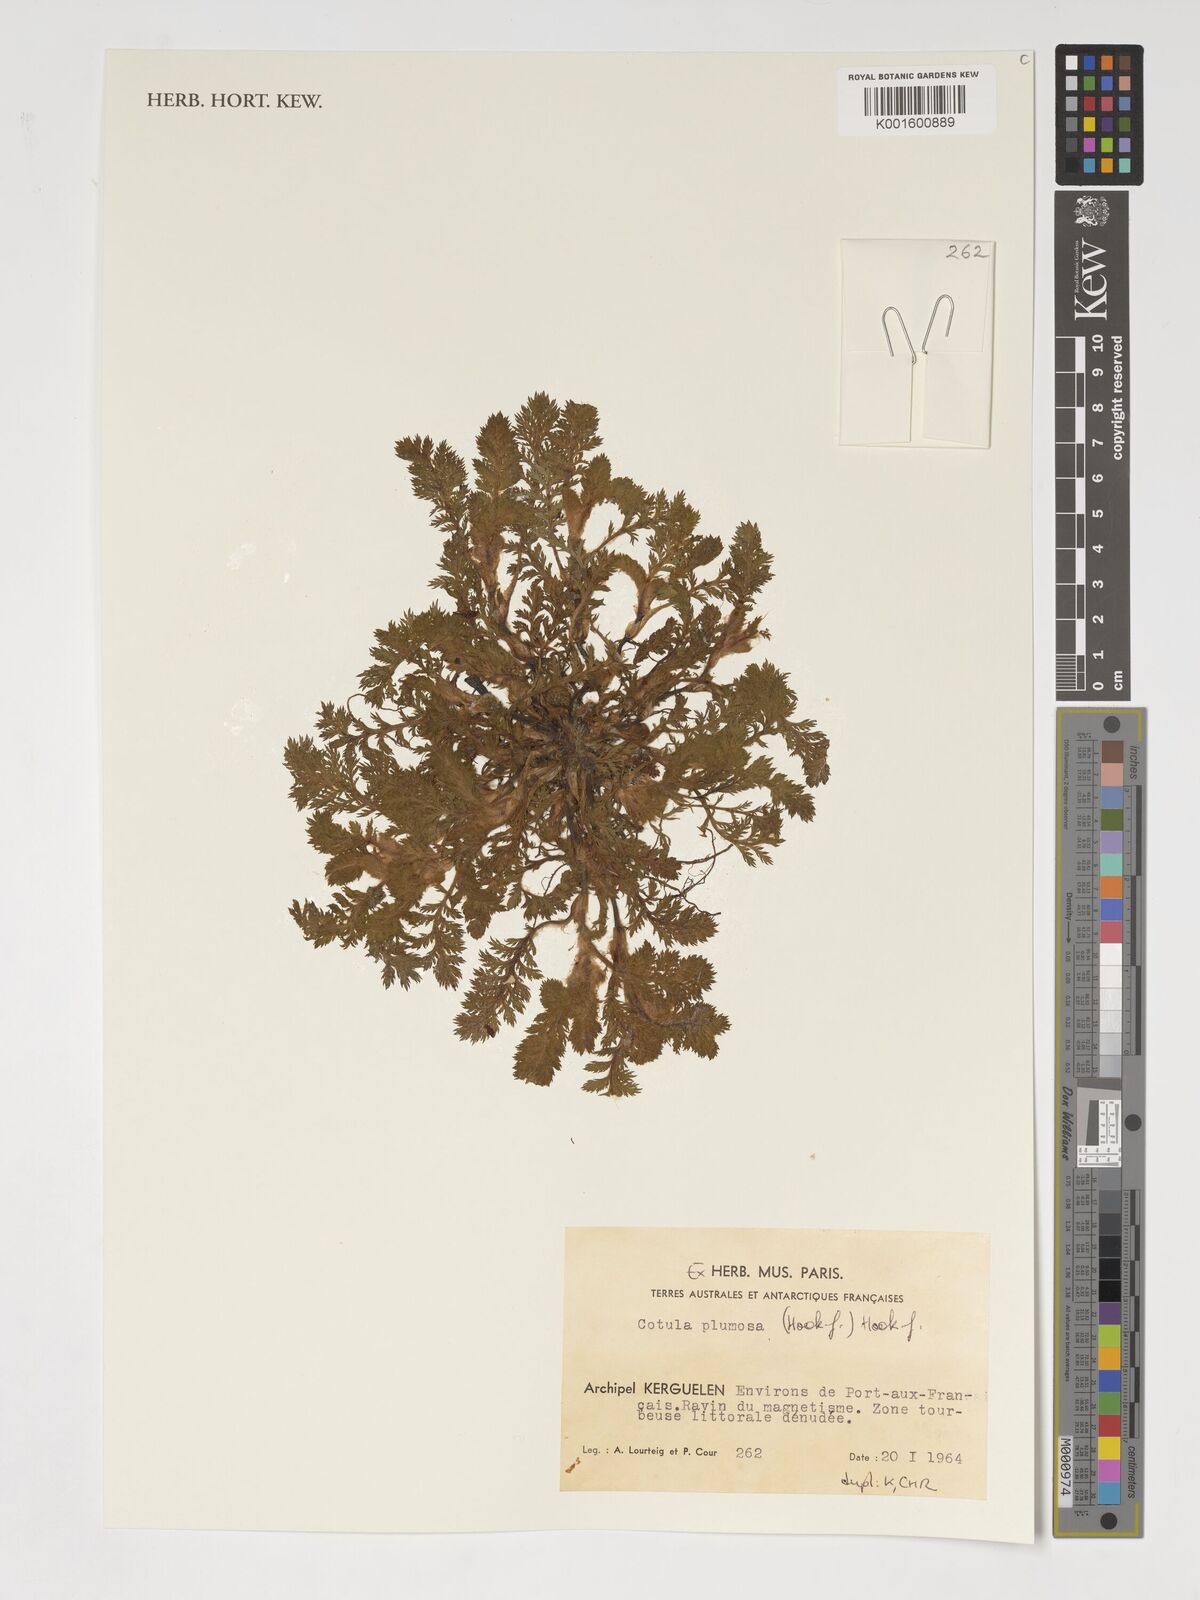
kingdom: Plantae
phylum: Tracheophyta
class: Magnoliopsida
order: Asterales
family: Asteraceae
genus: Leptinella
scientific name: Leptinella plumosa
